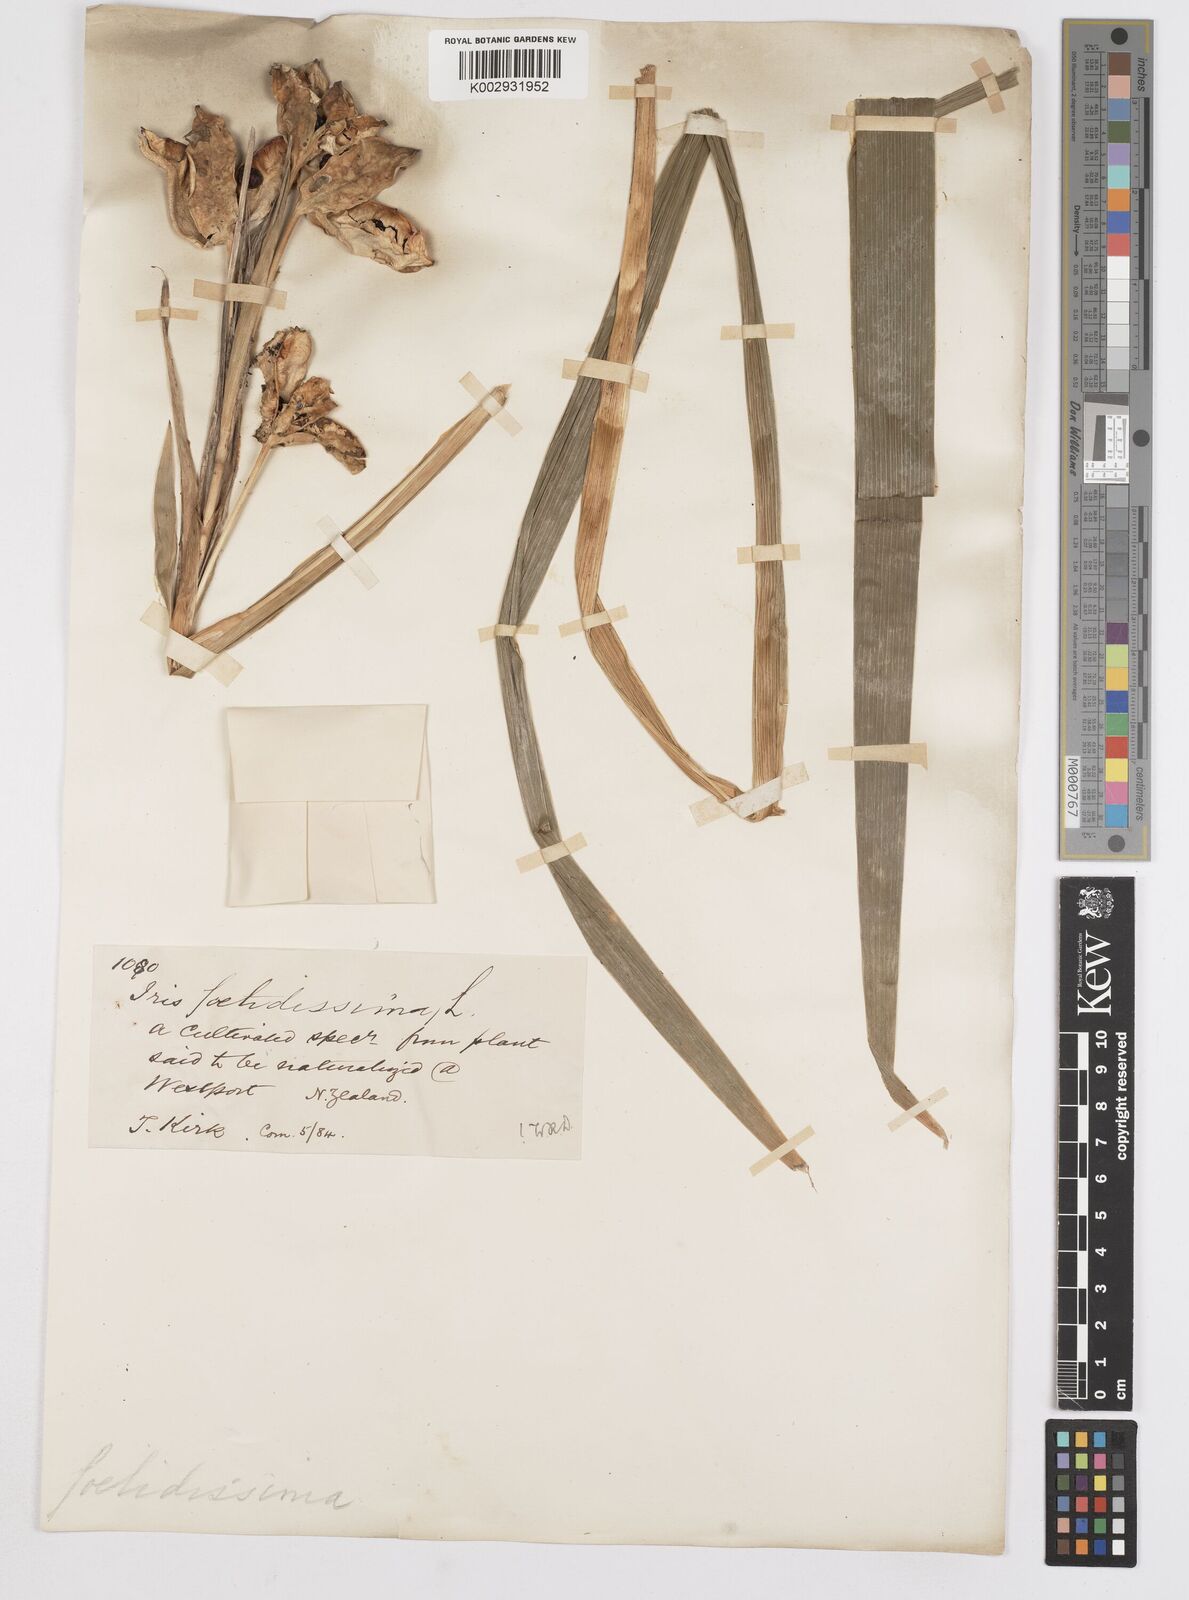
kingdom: Plantae
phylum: Tracheophyta
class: Liliopsida
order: Asparagales
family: Iridaceae
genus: Iris
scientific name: Iris foetidissima
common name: Stinking iris
